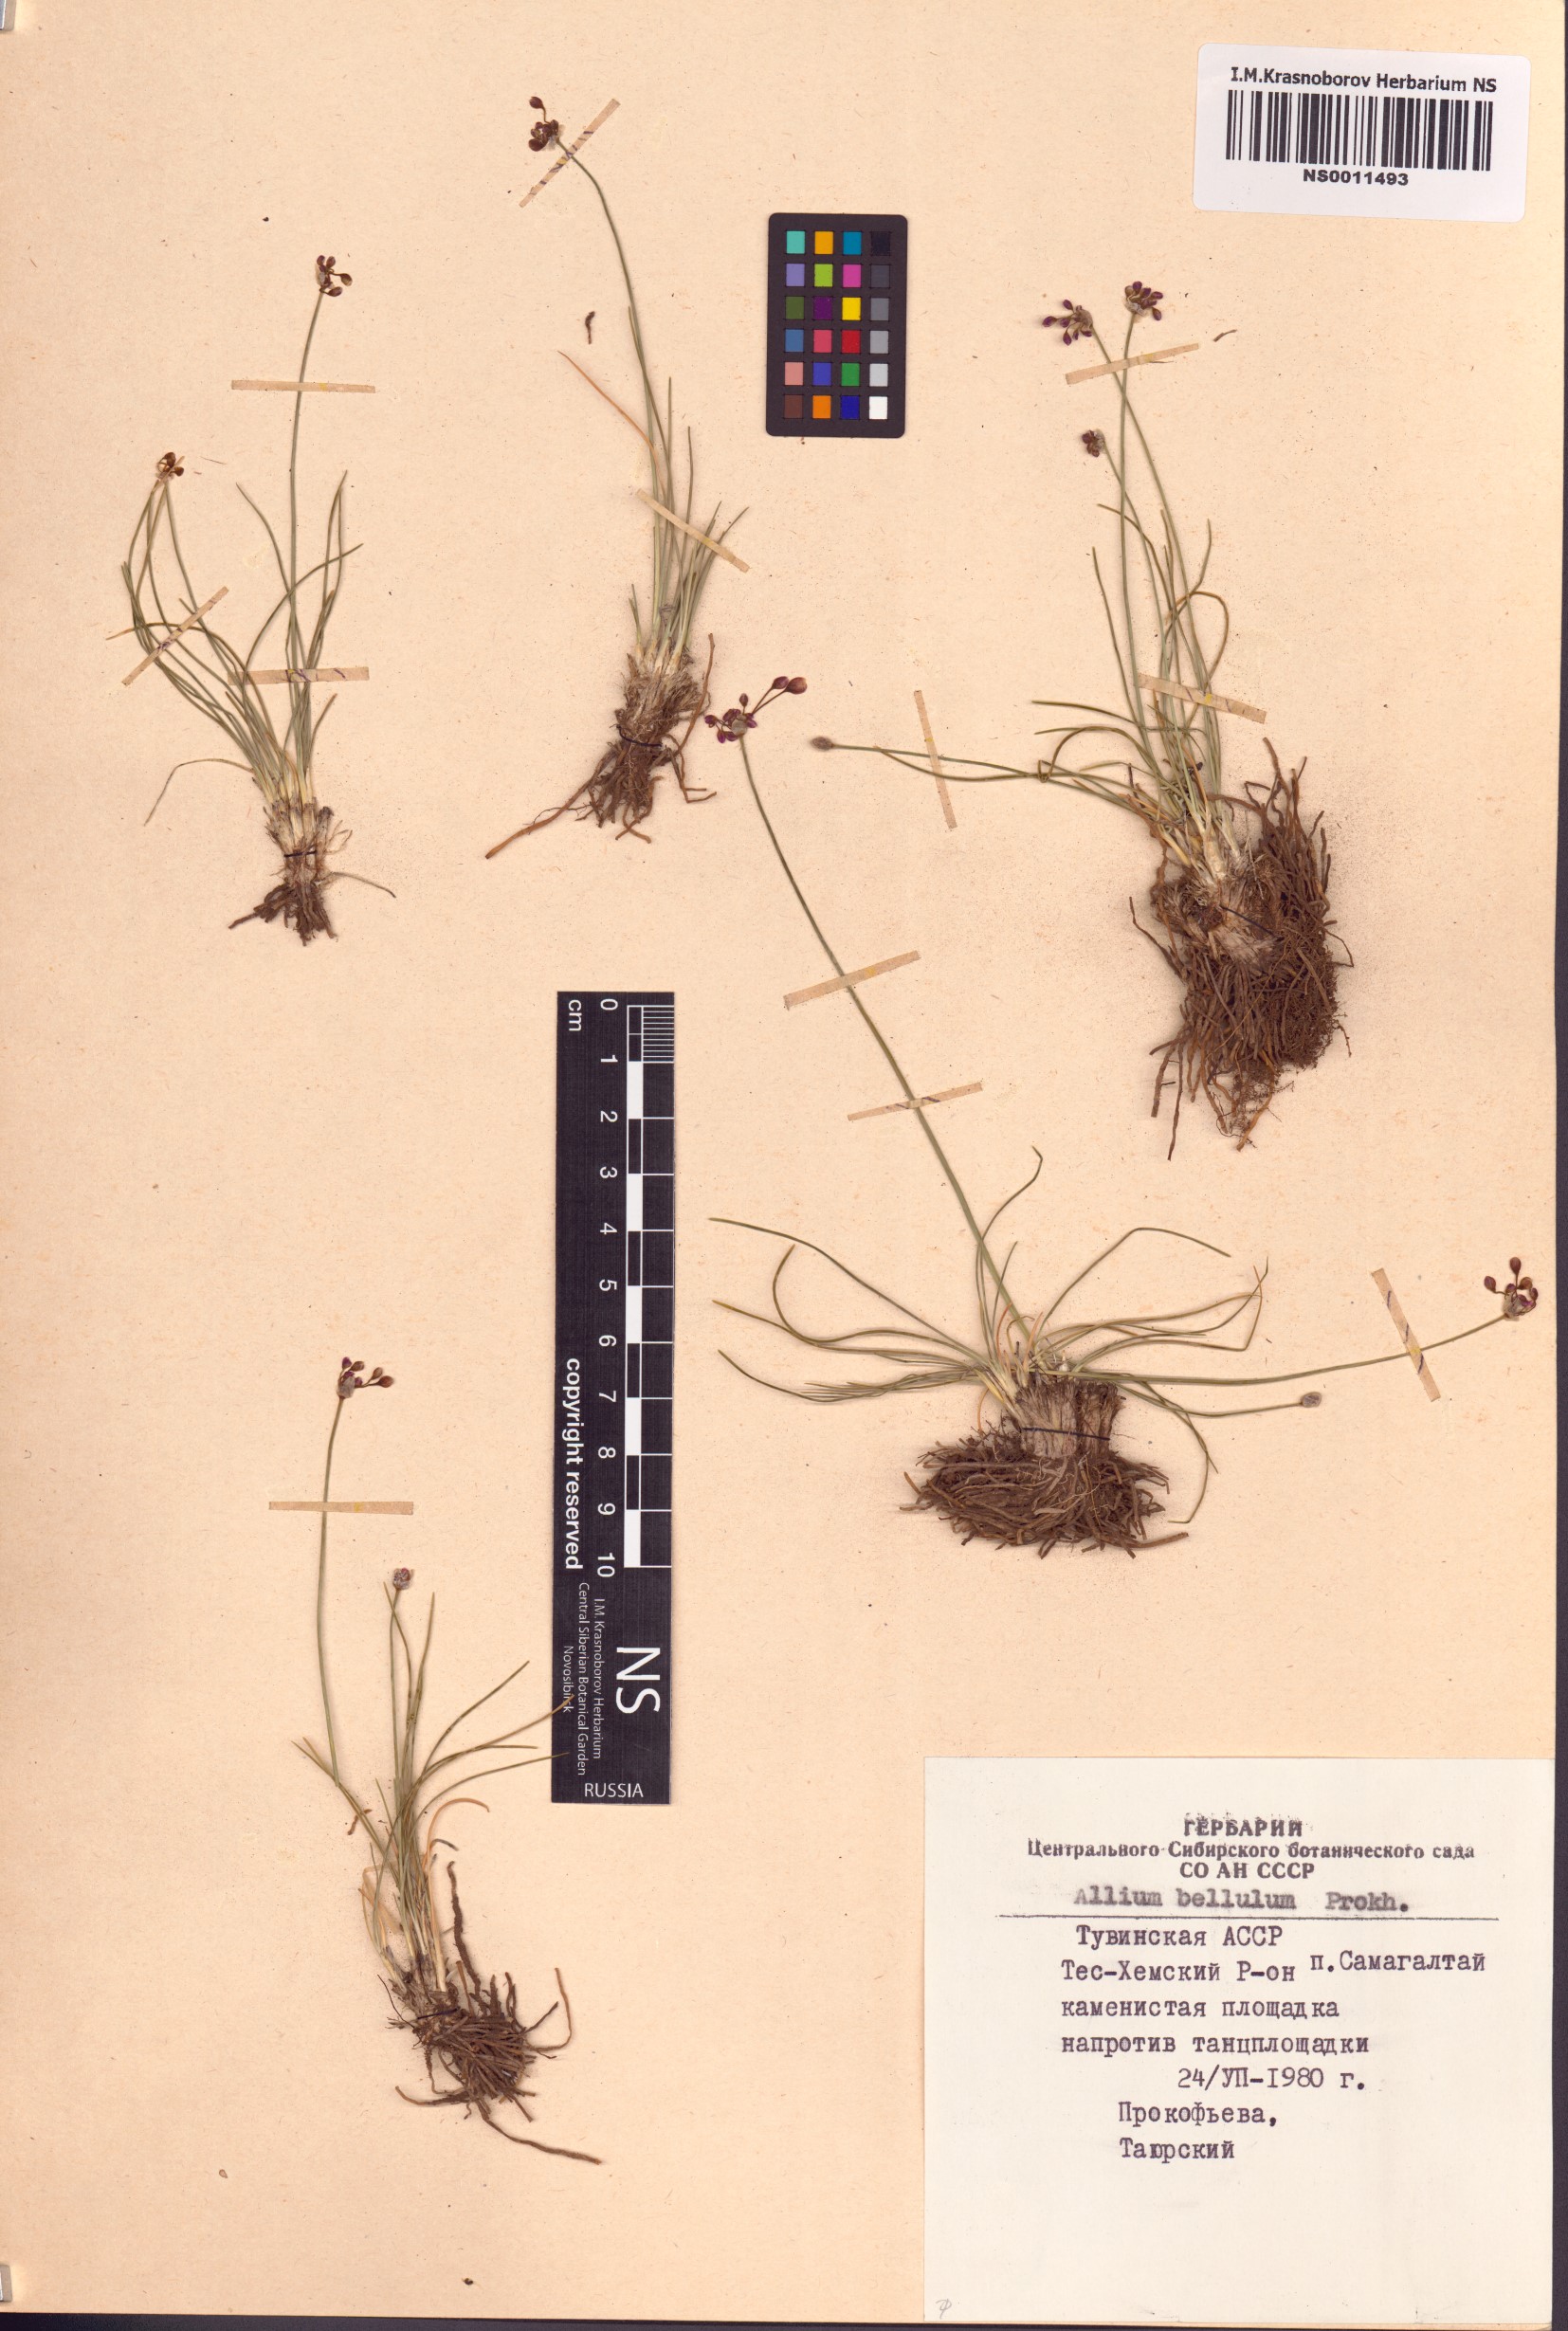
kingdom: Plantae
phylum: Tracheophyta
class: Liliopsida
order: Asparagales
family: Amaryllidaceae
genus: Allium
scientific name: Allium bellulum
